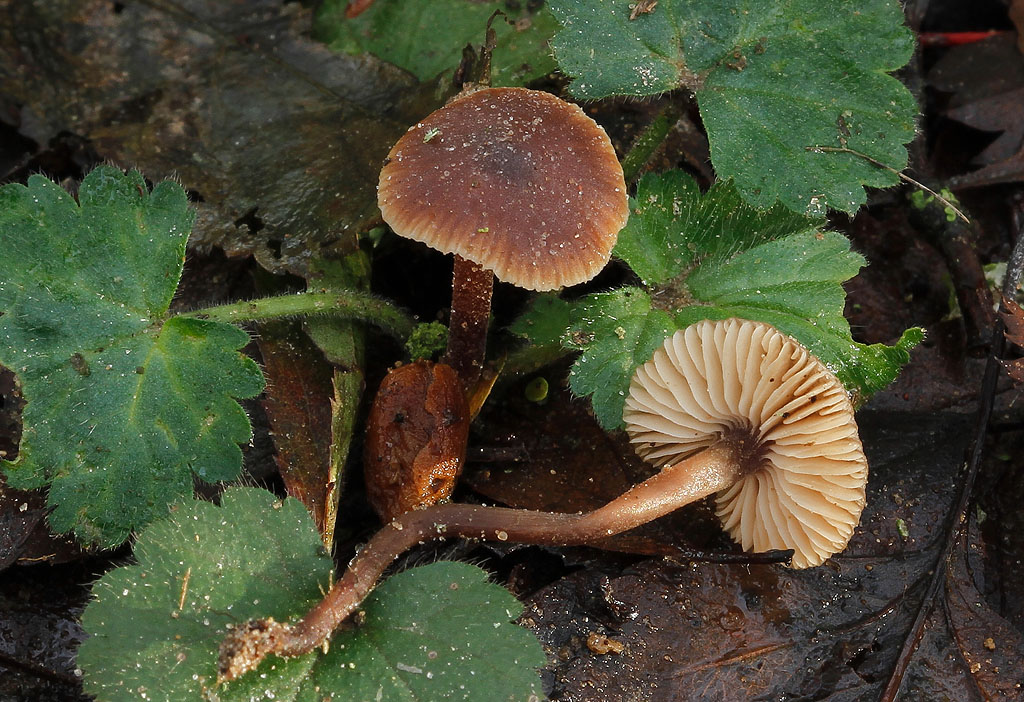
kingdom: Fungi
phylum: Basidiomycota
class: Agaricomycetes
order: Agaricales
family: Macrocystidiaceae
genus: Macrocystidia
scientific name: Macrocystidia cucumis
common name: agurkehat
